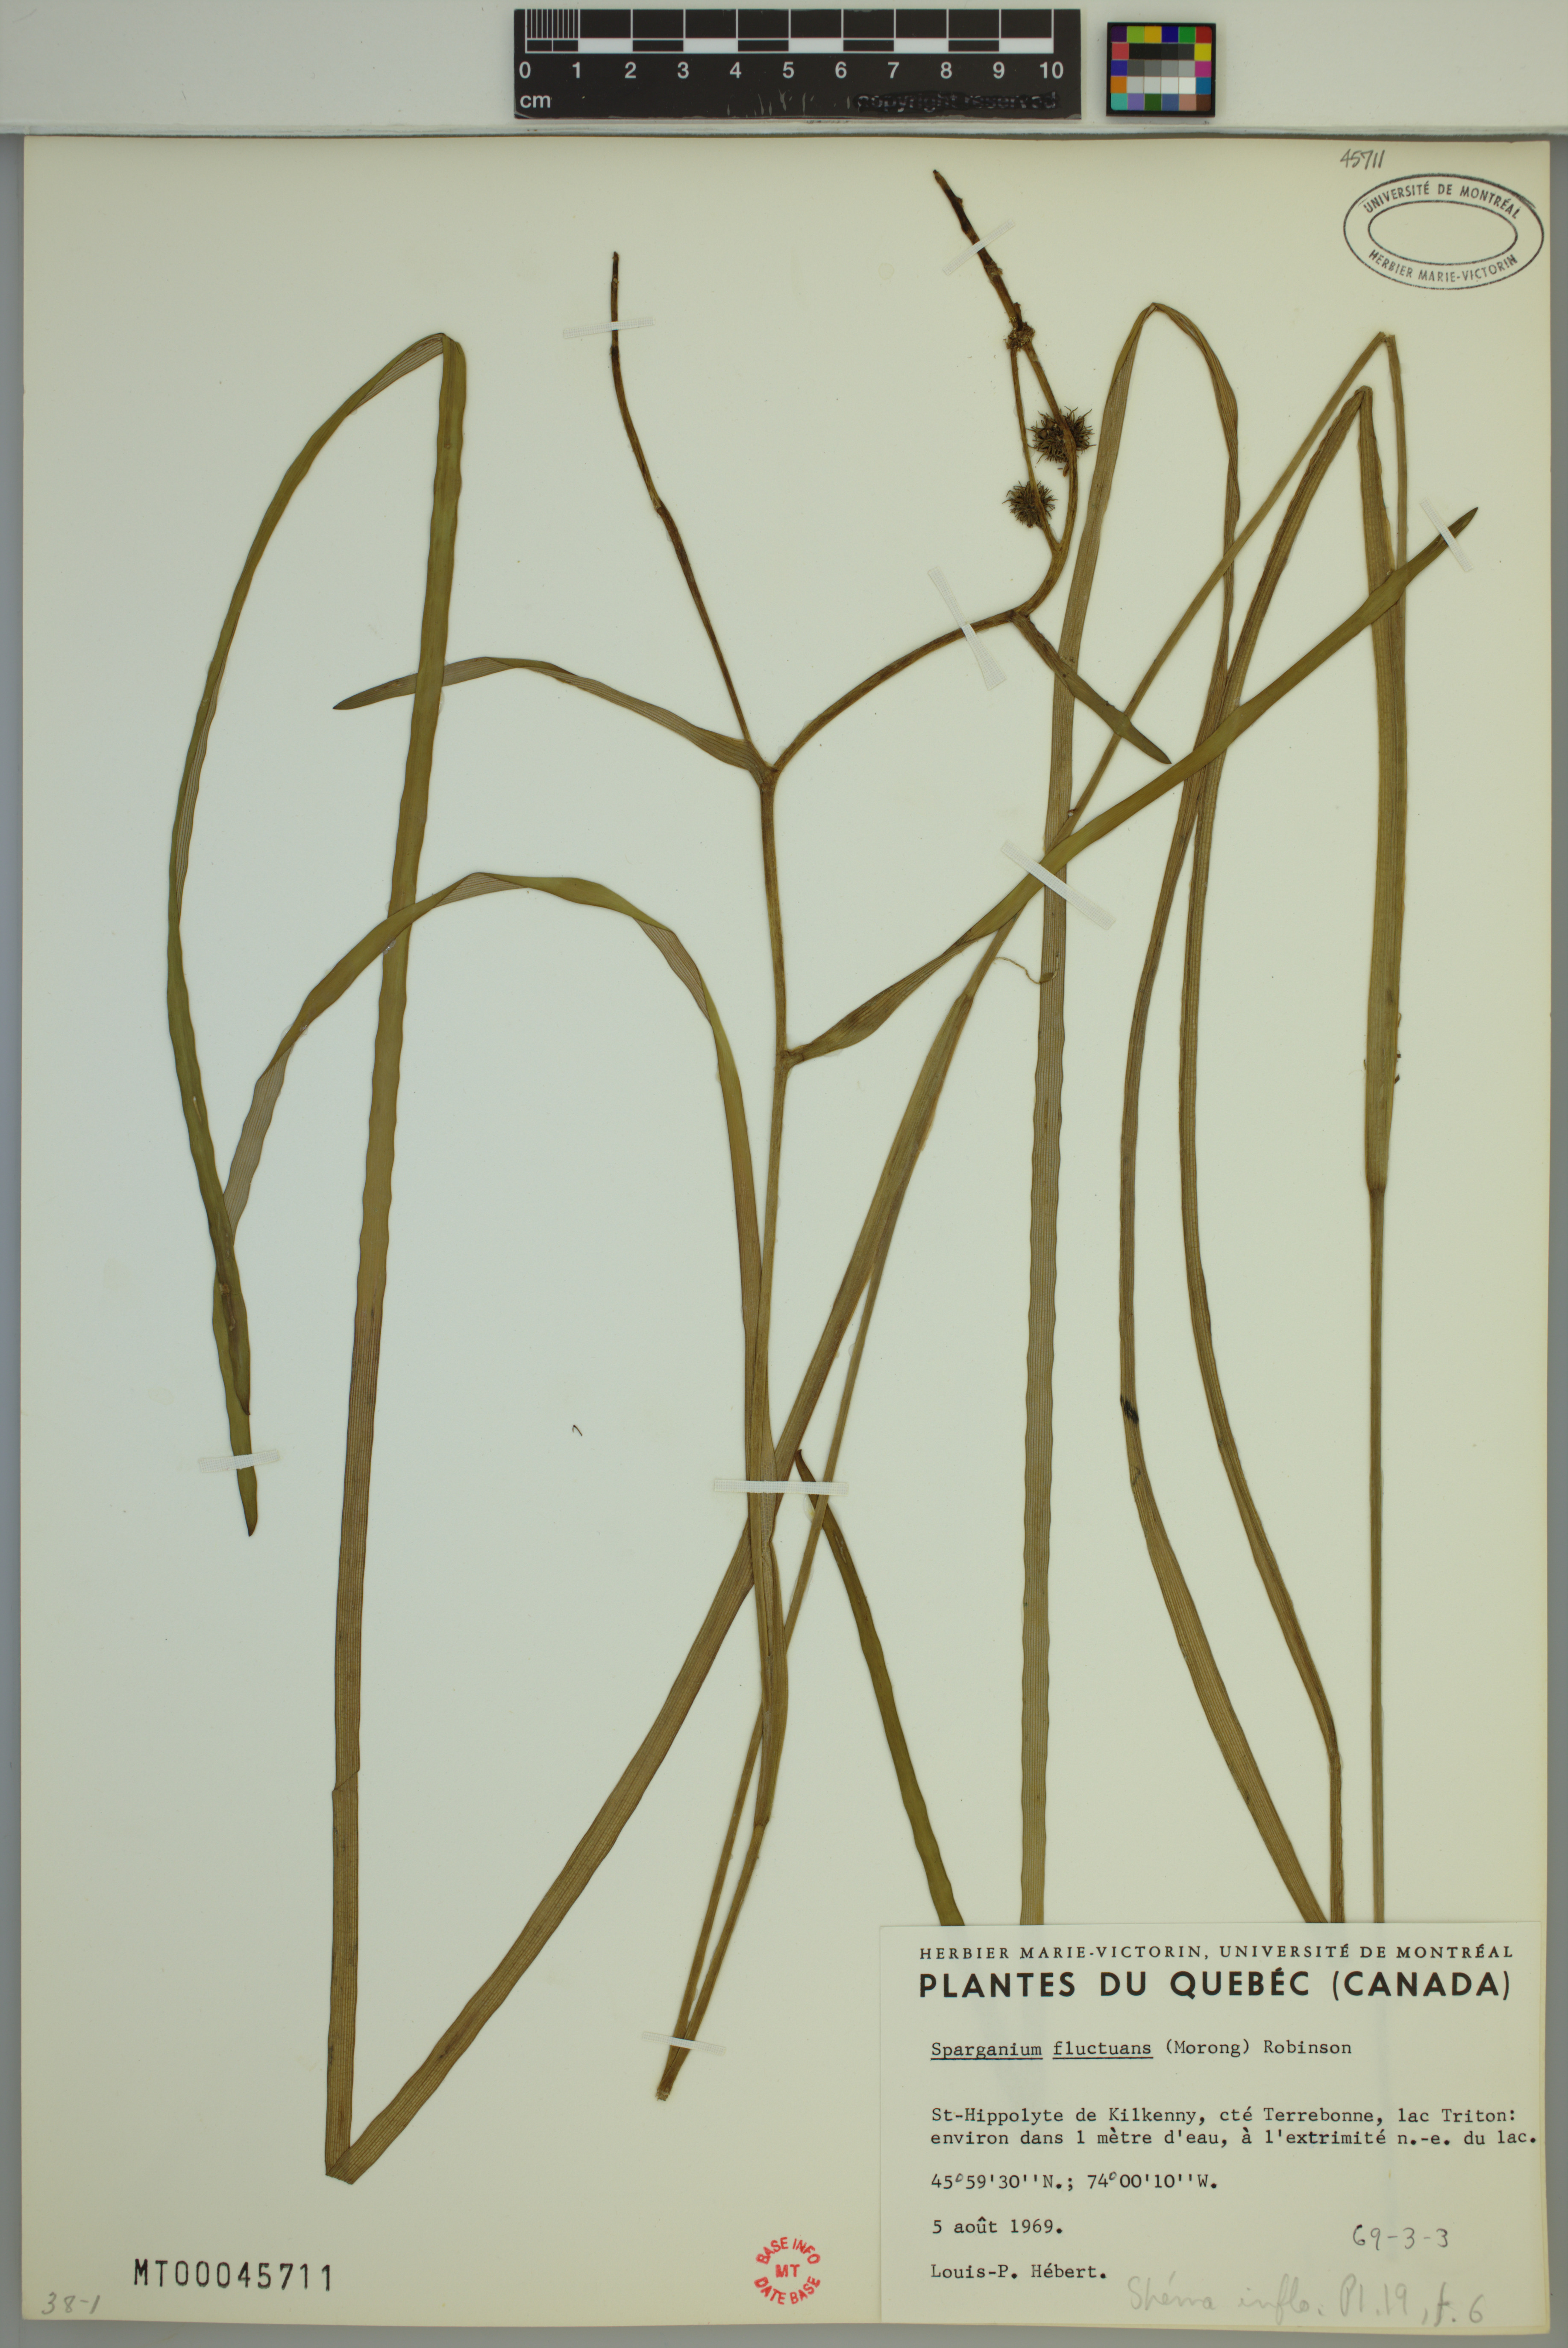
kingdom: Plantae
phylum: Tracheophyta
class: Liliopsida
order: Poales
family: Typhaceae
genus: Sparganium
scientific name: Sparganium fluctuans
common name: Floating burreed
